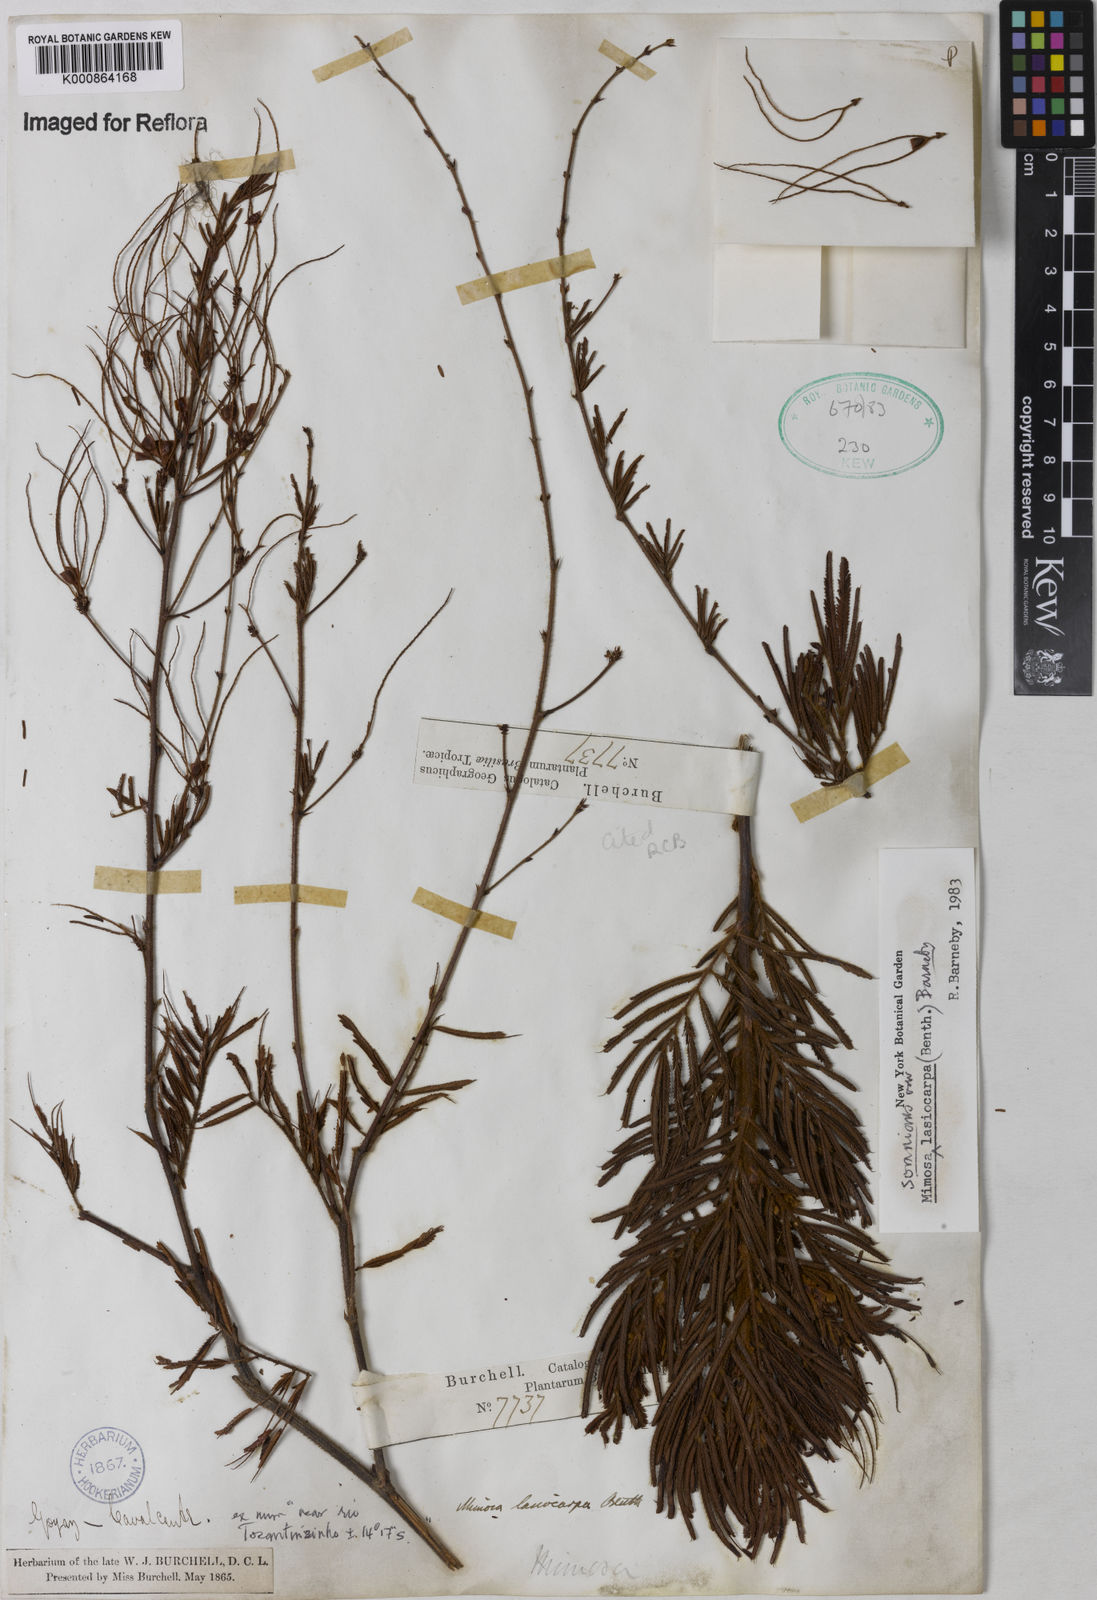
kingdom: Plantae
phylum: Tracheophyta
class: Magnoliopsida
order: Fabales
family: Fabaceae
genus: Mimosa
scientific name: Mimosa somnians
